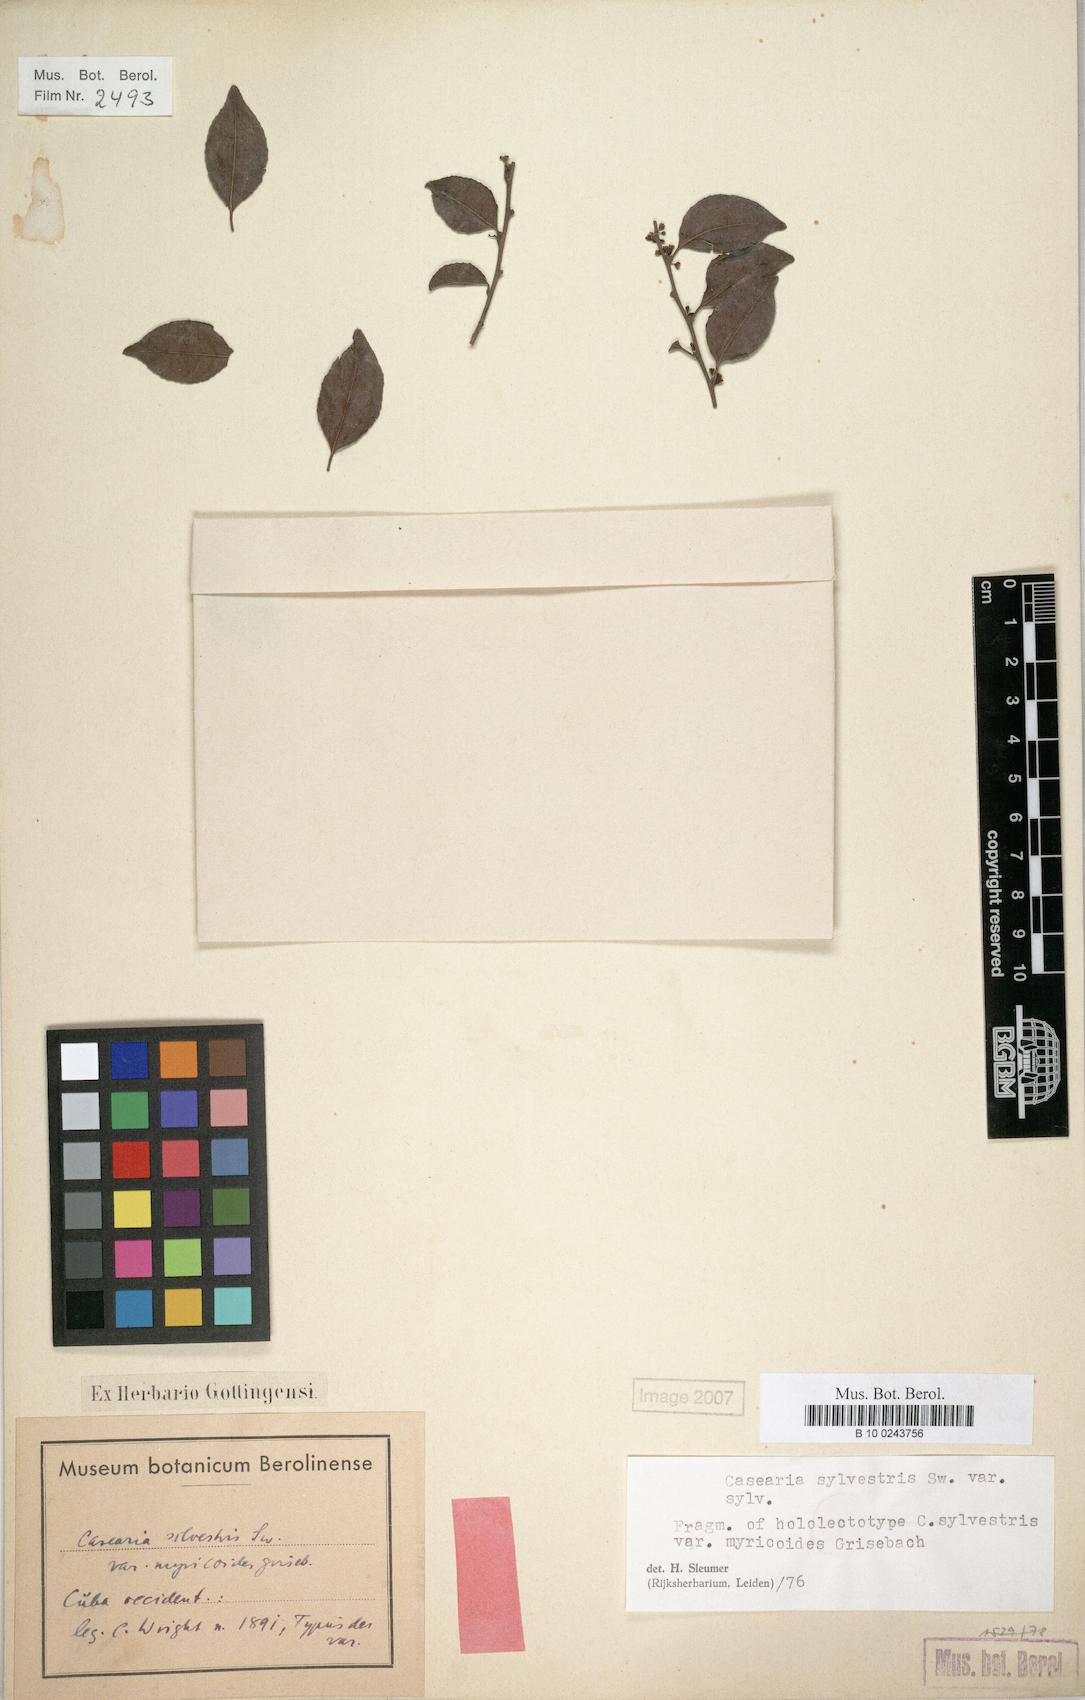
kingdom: Plantae
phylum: Tracheophyta
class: Magnoliopsida
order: Malpighiales
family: Salicaceae
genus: Casearia
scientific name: Casearia sylvestris
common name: Wild sage
